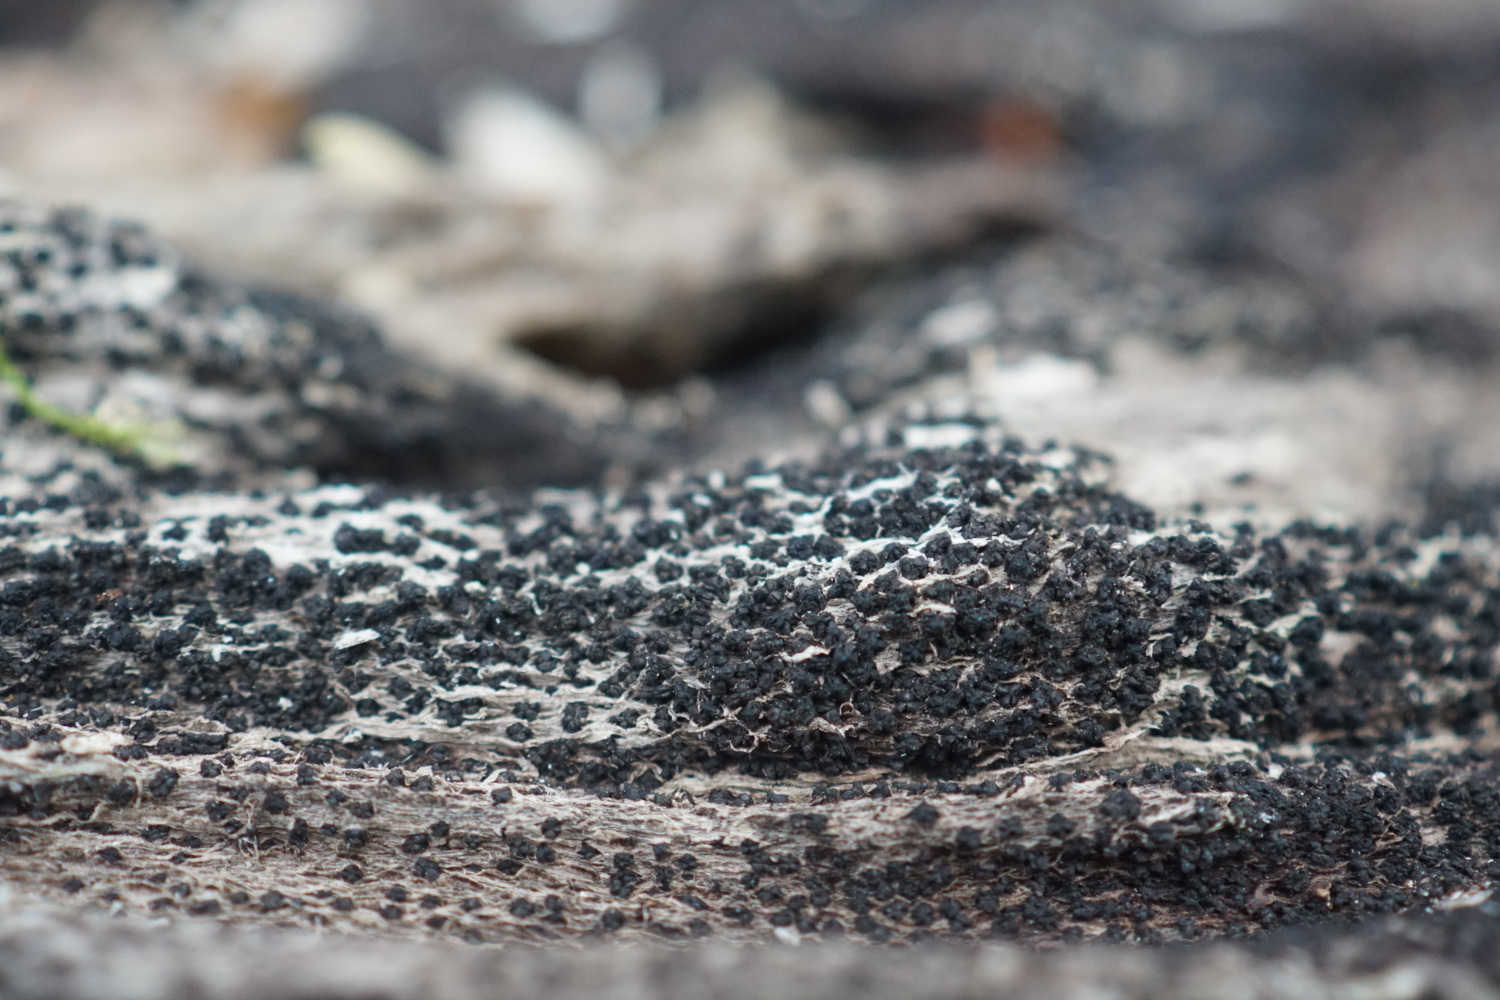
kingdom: Fungi
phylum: Ascomycota
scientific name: Ascomycota
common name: sæksvampe
